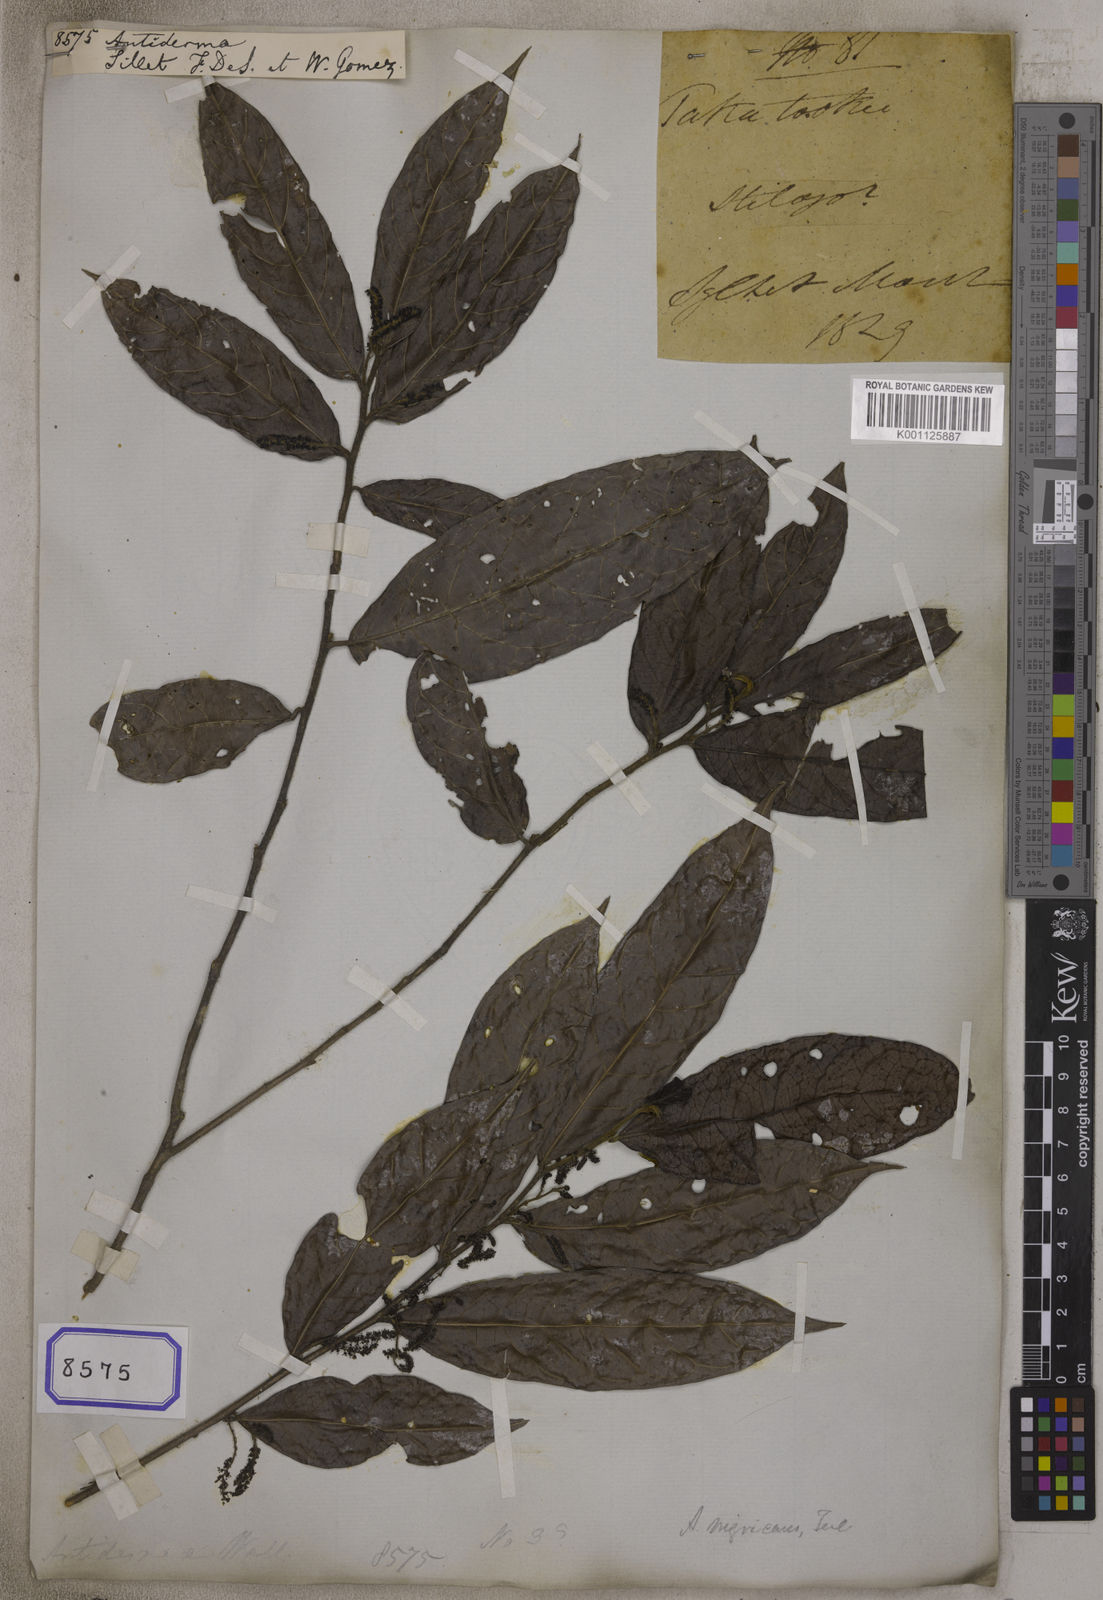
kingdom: Plantae
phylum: Tracheophyta
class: Magnoliopsida
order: Malpighiales
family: Phyllanthaceae
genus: Antidesma
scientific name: Antidesma
